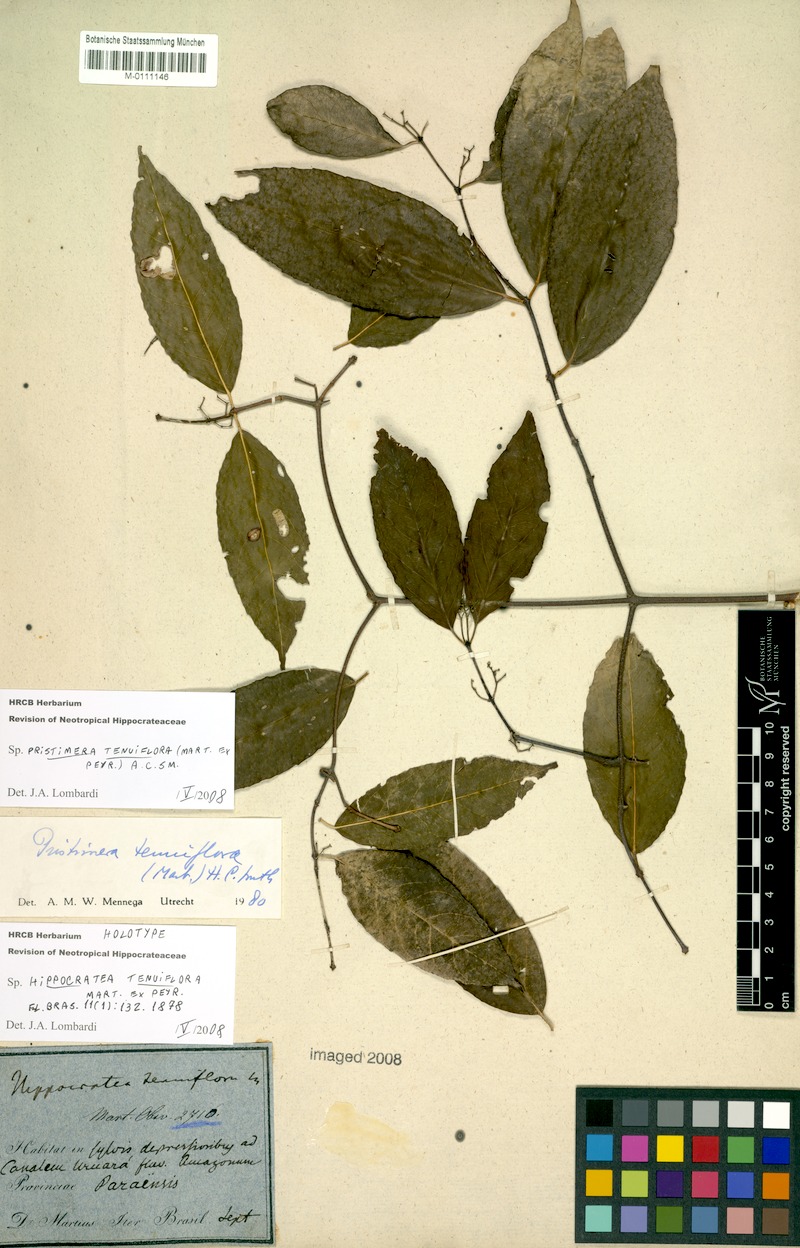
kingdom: Plantae
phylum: Tracheophyta
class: Magnoliopsida
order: Celastrales
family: Celastraceae
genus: Pristimera
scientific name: Pristimera tenuiflora
